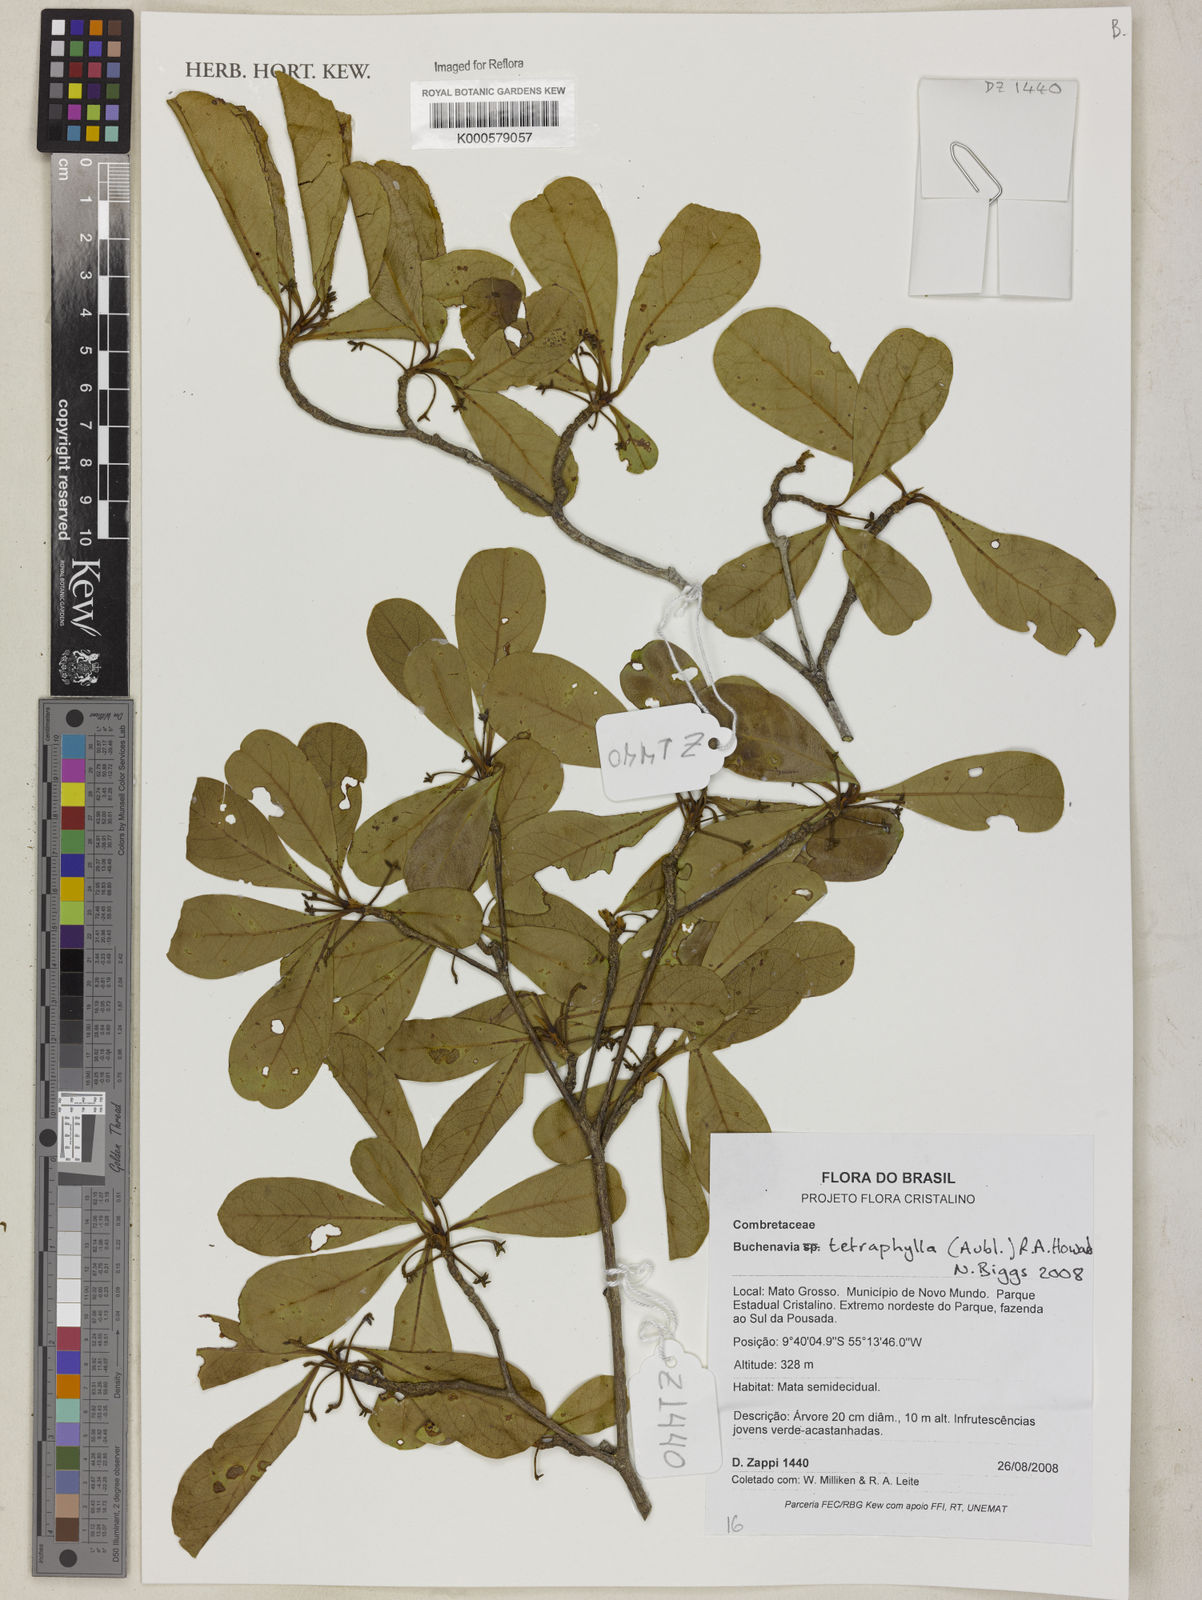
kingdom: Plantae
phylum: Tracheophyta
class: Magnoliopsida
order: Myrtales
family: Combretaceae
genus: Terminalia
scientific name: Terminalia tetraphylla
